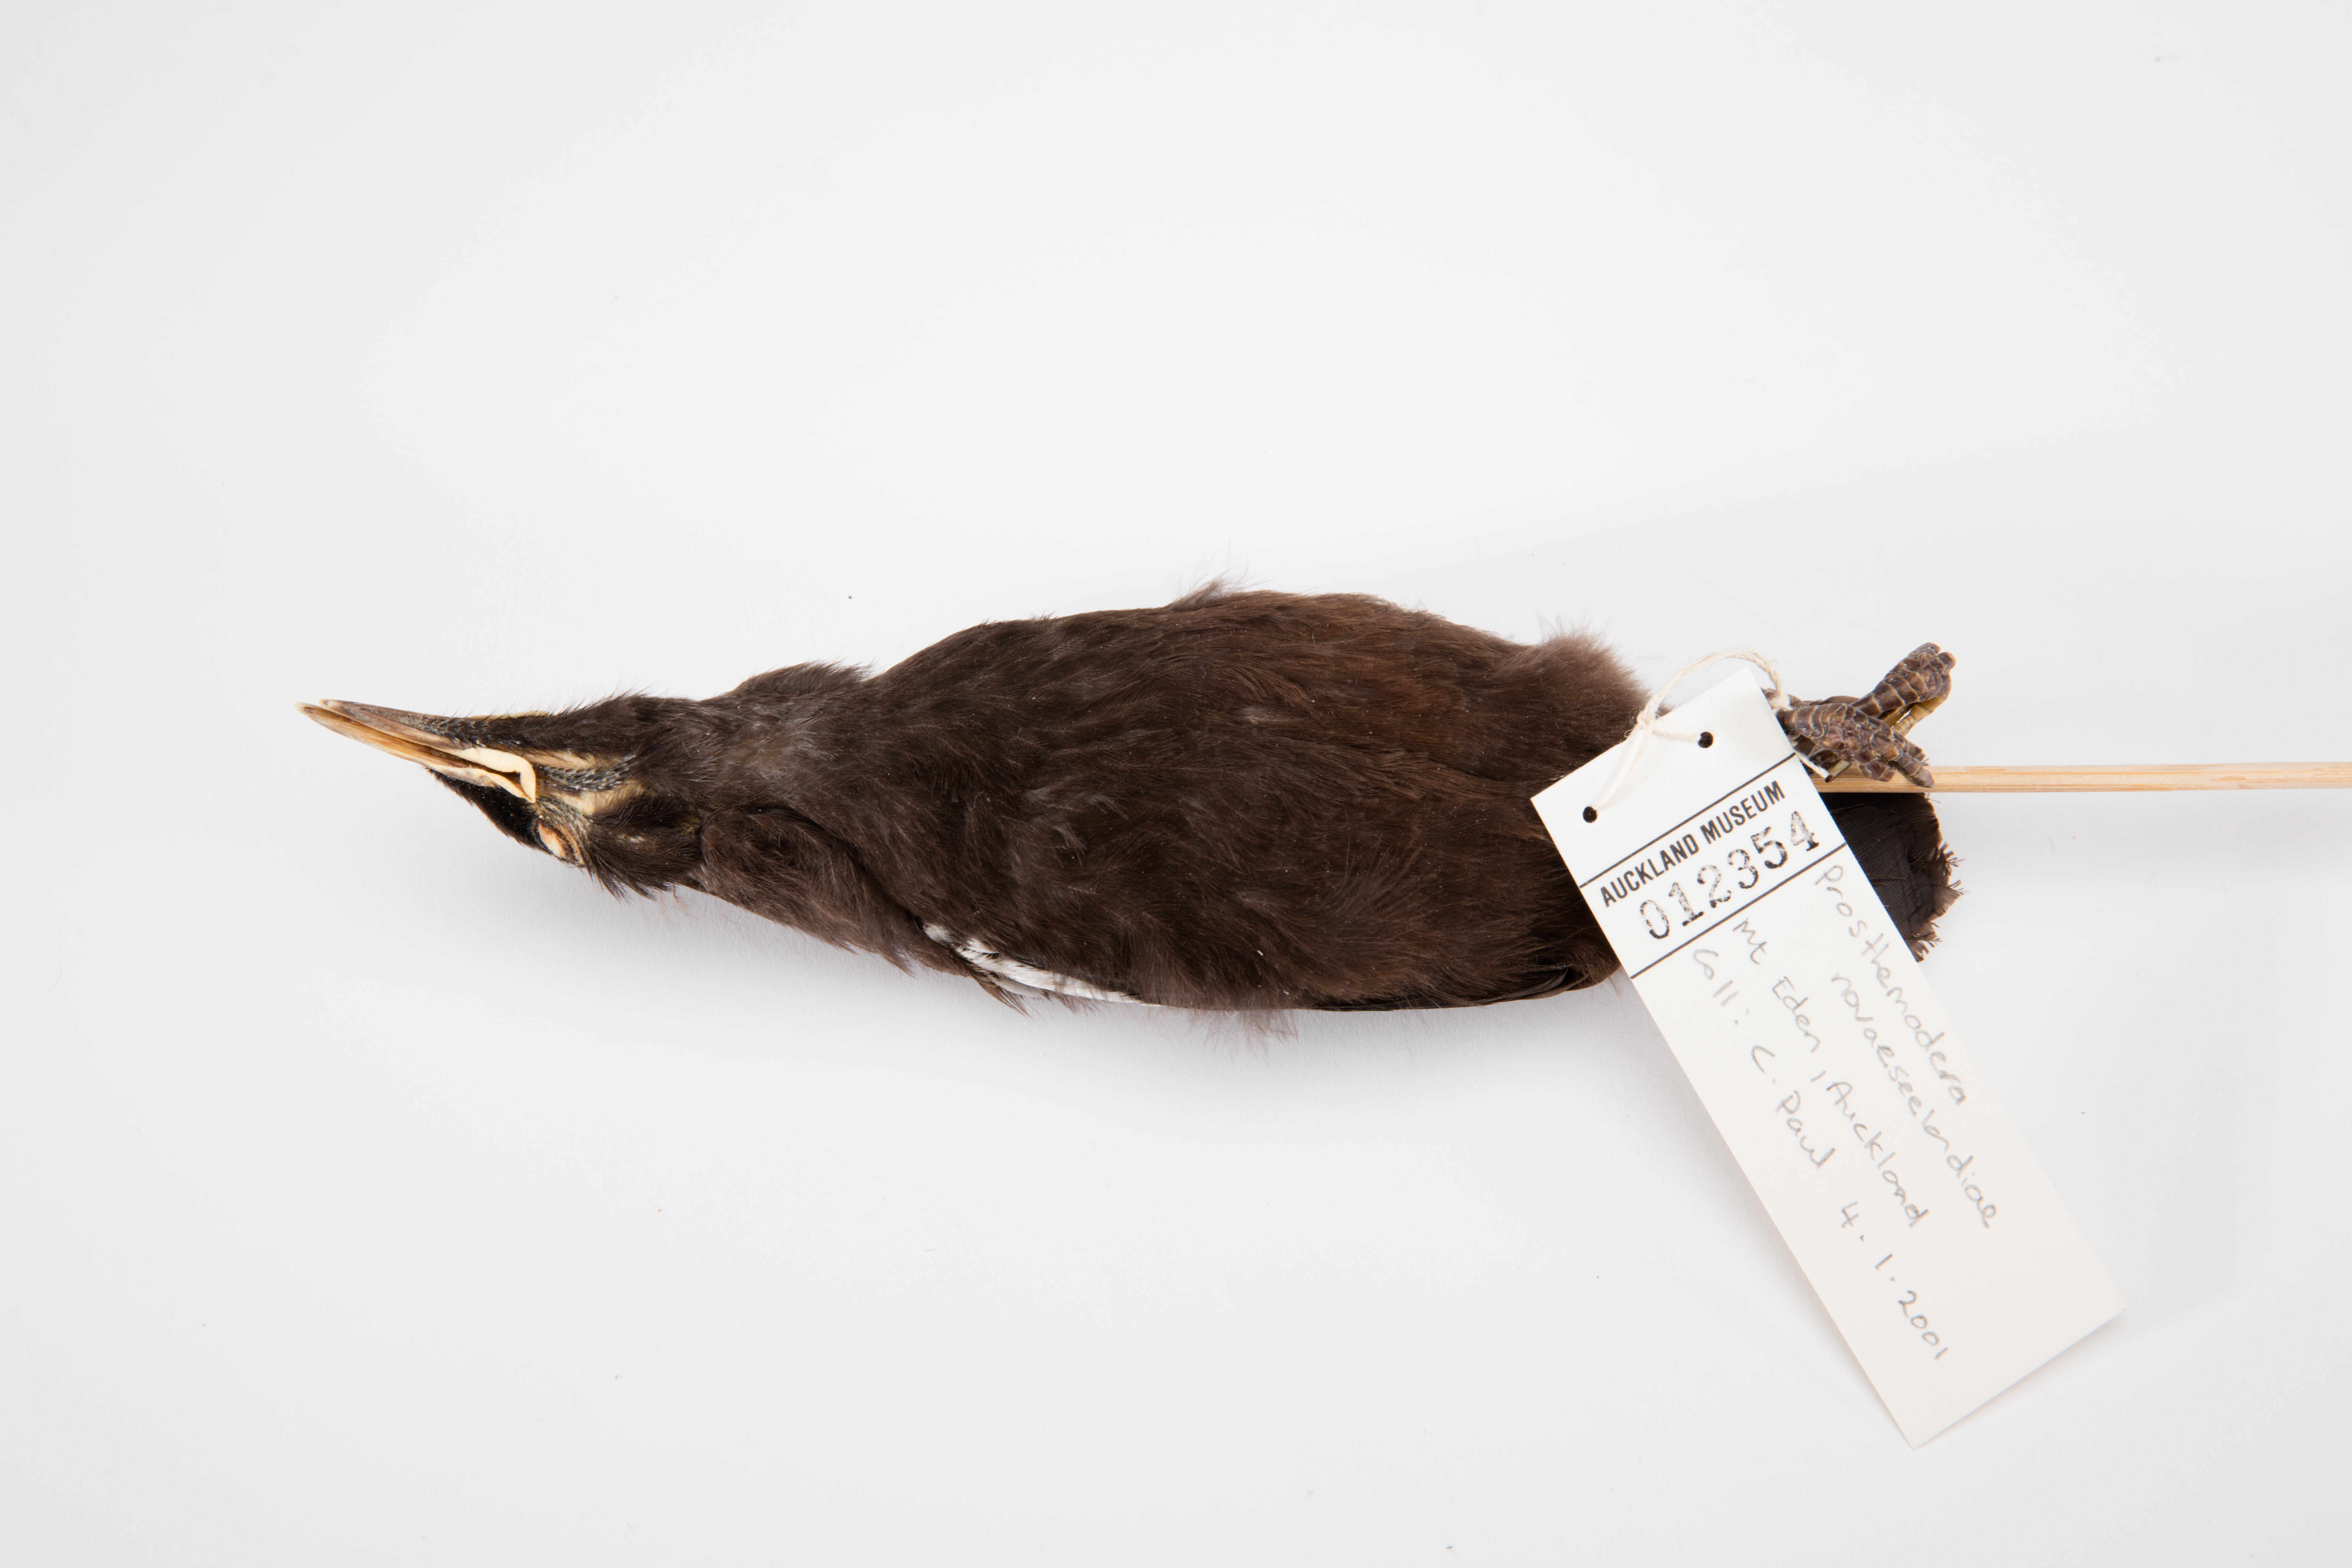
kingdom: Animalia
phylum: Chordata
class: Aves
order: Passeriformes
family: Meliphagidae
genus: Prosthemadera
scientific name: Prosthemadera novaeseelandiae
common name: Tui
